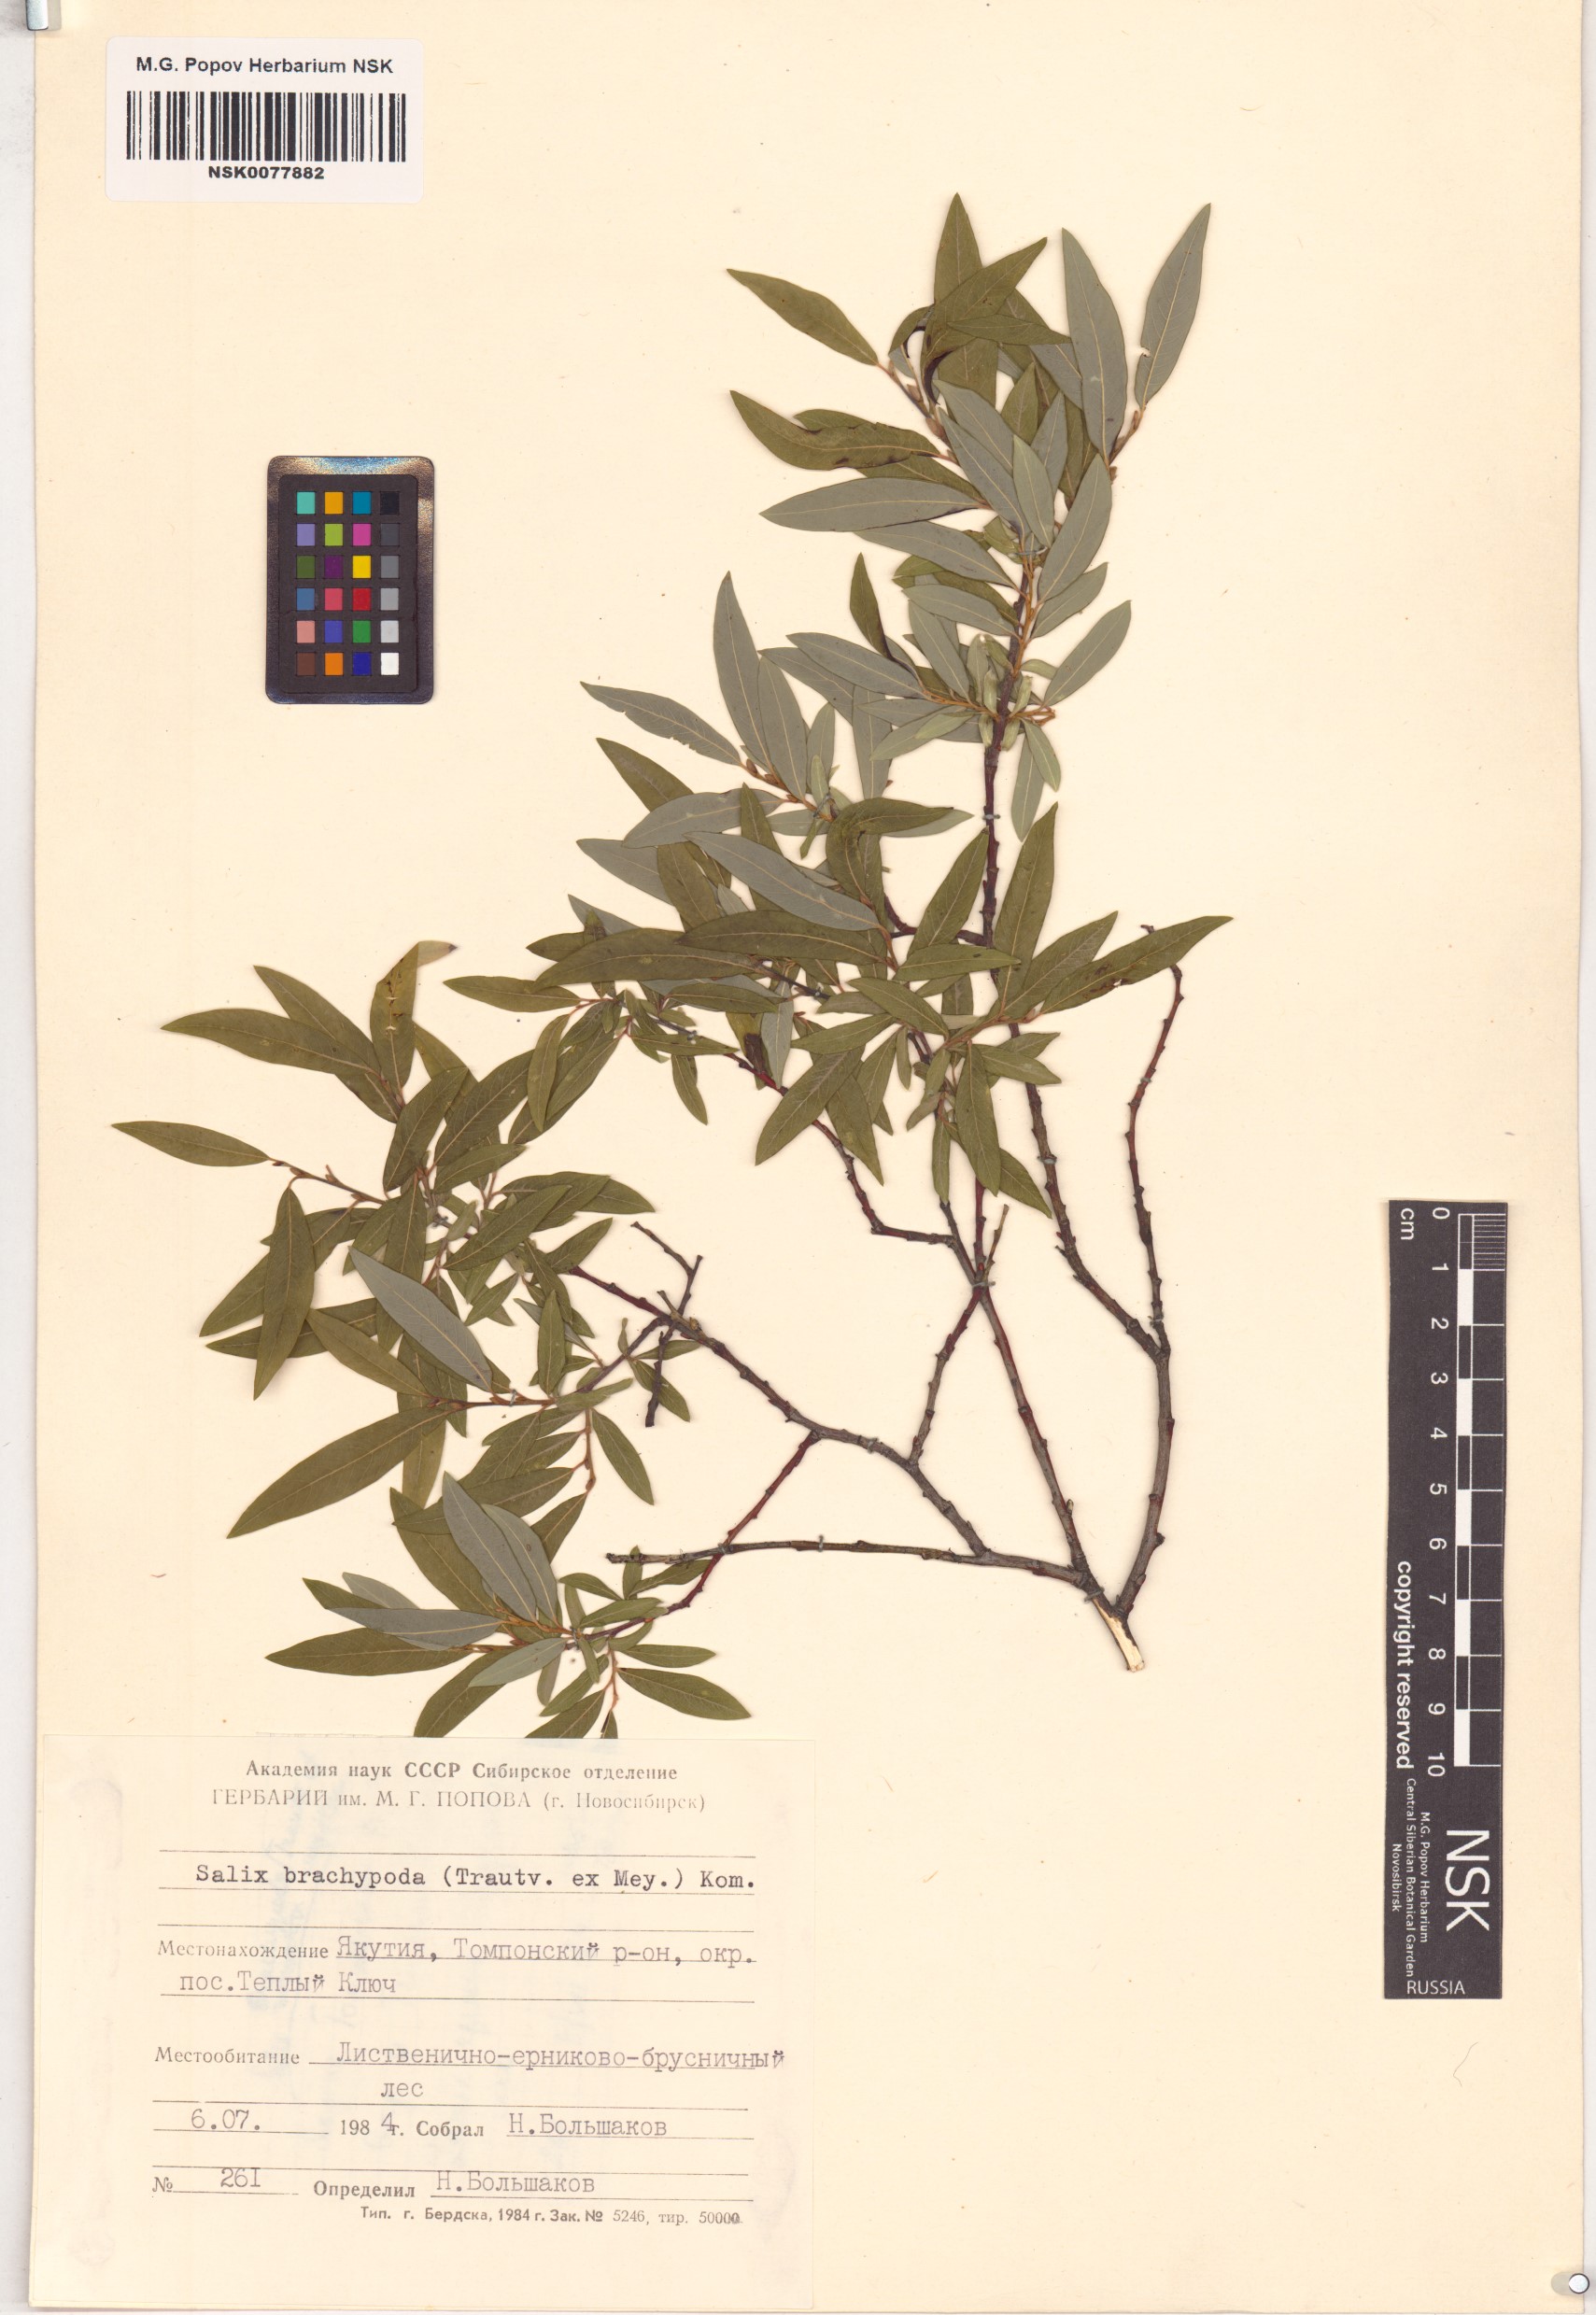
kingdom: Plantae
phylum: Tracheophyta
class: Magnoliopsida
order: Malpighiales
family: Salicaceae
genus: Salix
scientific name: Salix brachypoda
